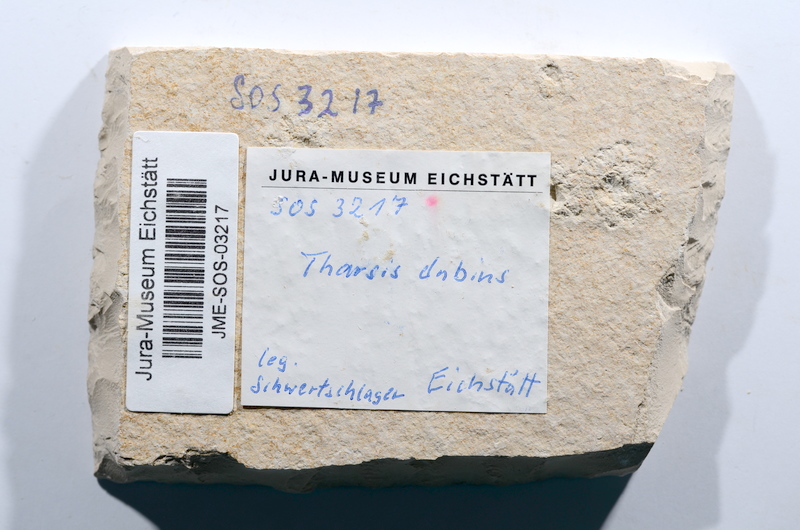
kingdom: Animalia
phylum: Chordata
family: Ascalaboidae
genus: Tharsis
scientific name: Tharsis dubius
